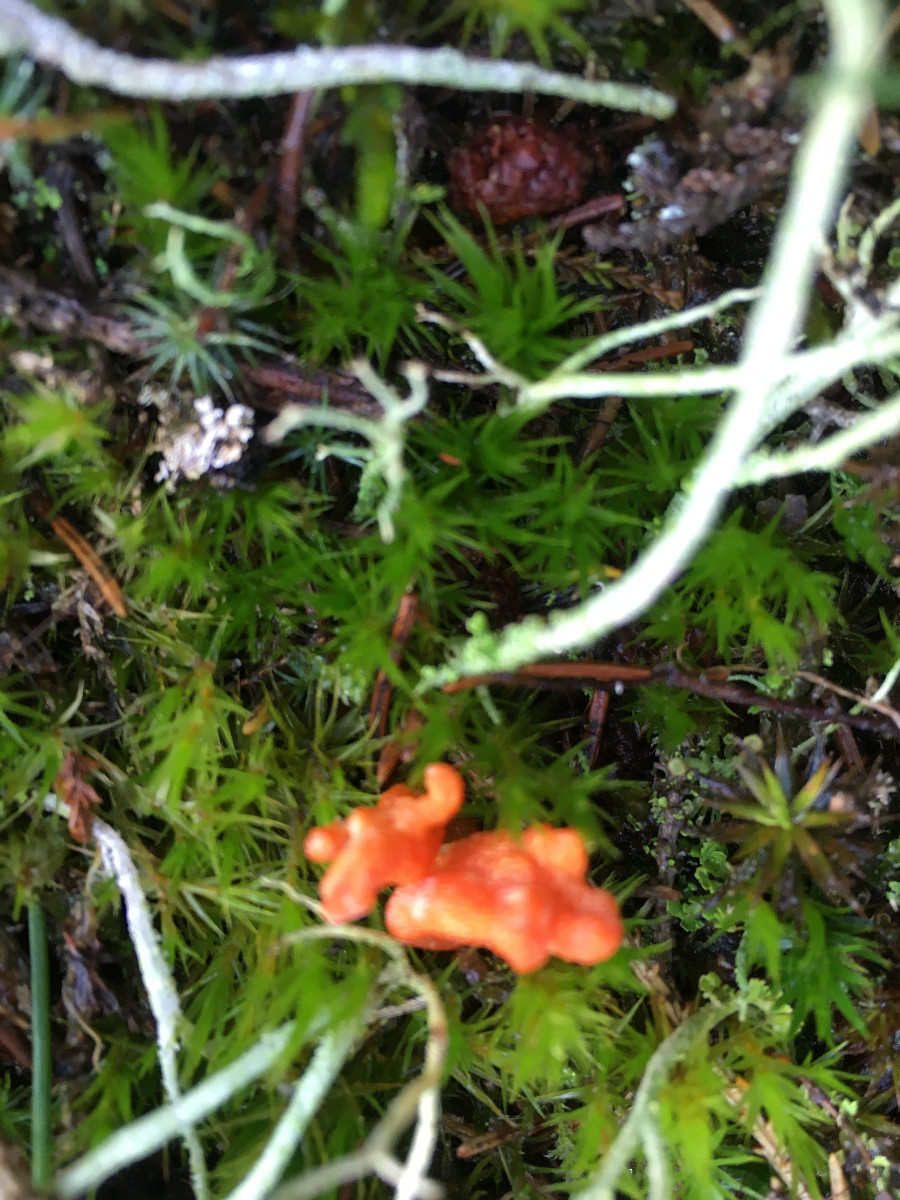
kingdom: Fungi
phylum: Ascomycota
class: Sordariomycetes
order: Hypocreales
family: Cordycipitaceae
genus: Cordyceps
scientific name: Cordyceps militaris
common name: puppe-snyltekølle
